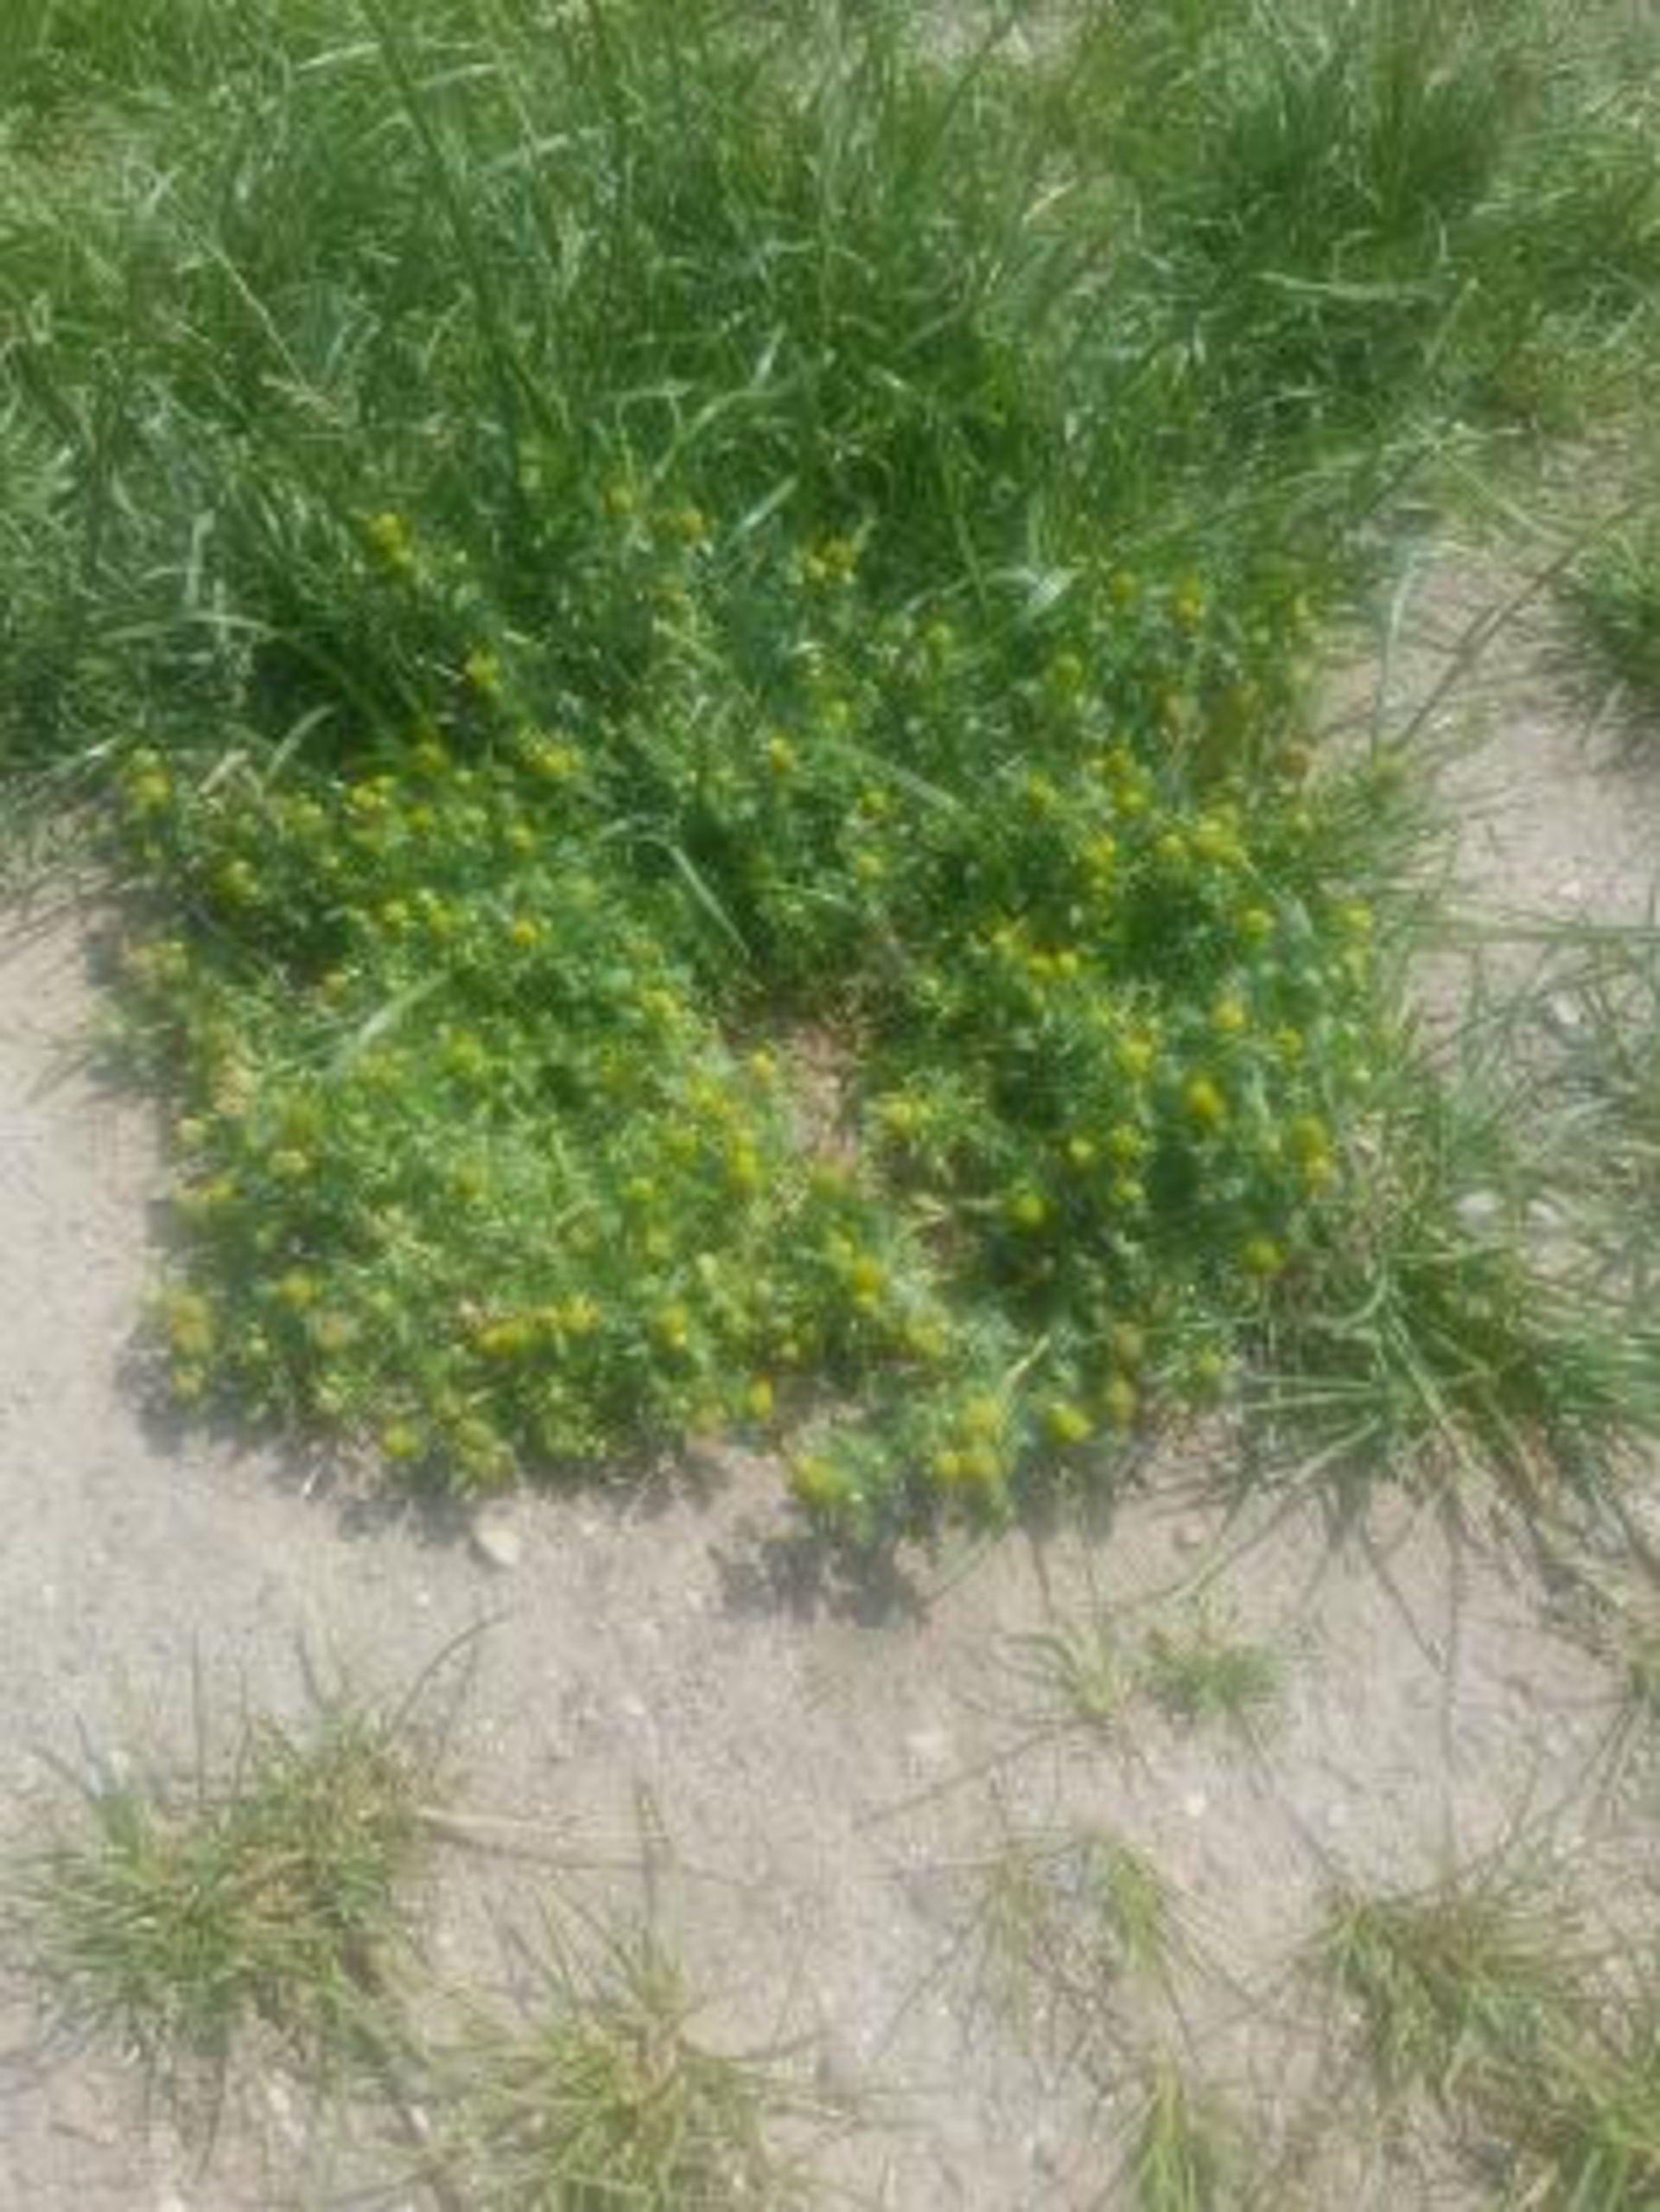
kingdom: Plantae
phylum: Tracheophyta
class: Magnoliopsida
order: Asterales
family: Asteraceae
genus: Matricaria
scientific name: Matricaria discoidea
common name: Skive-kamille
